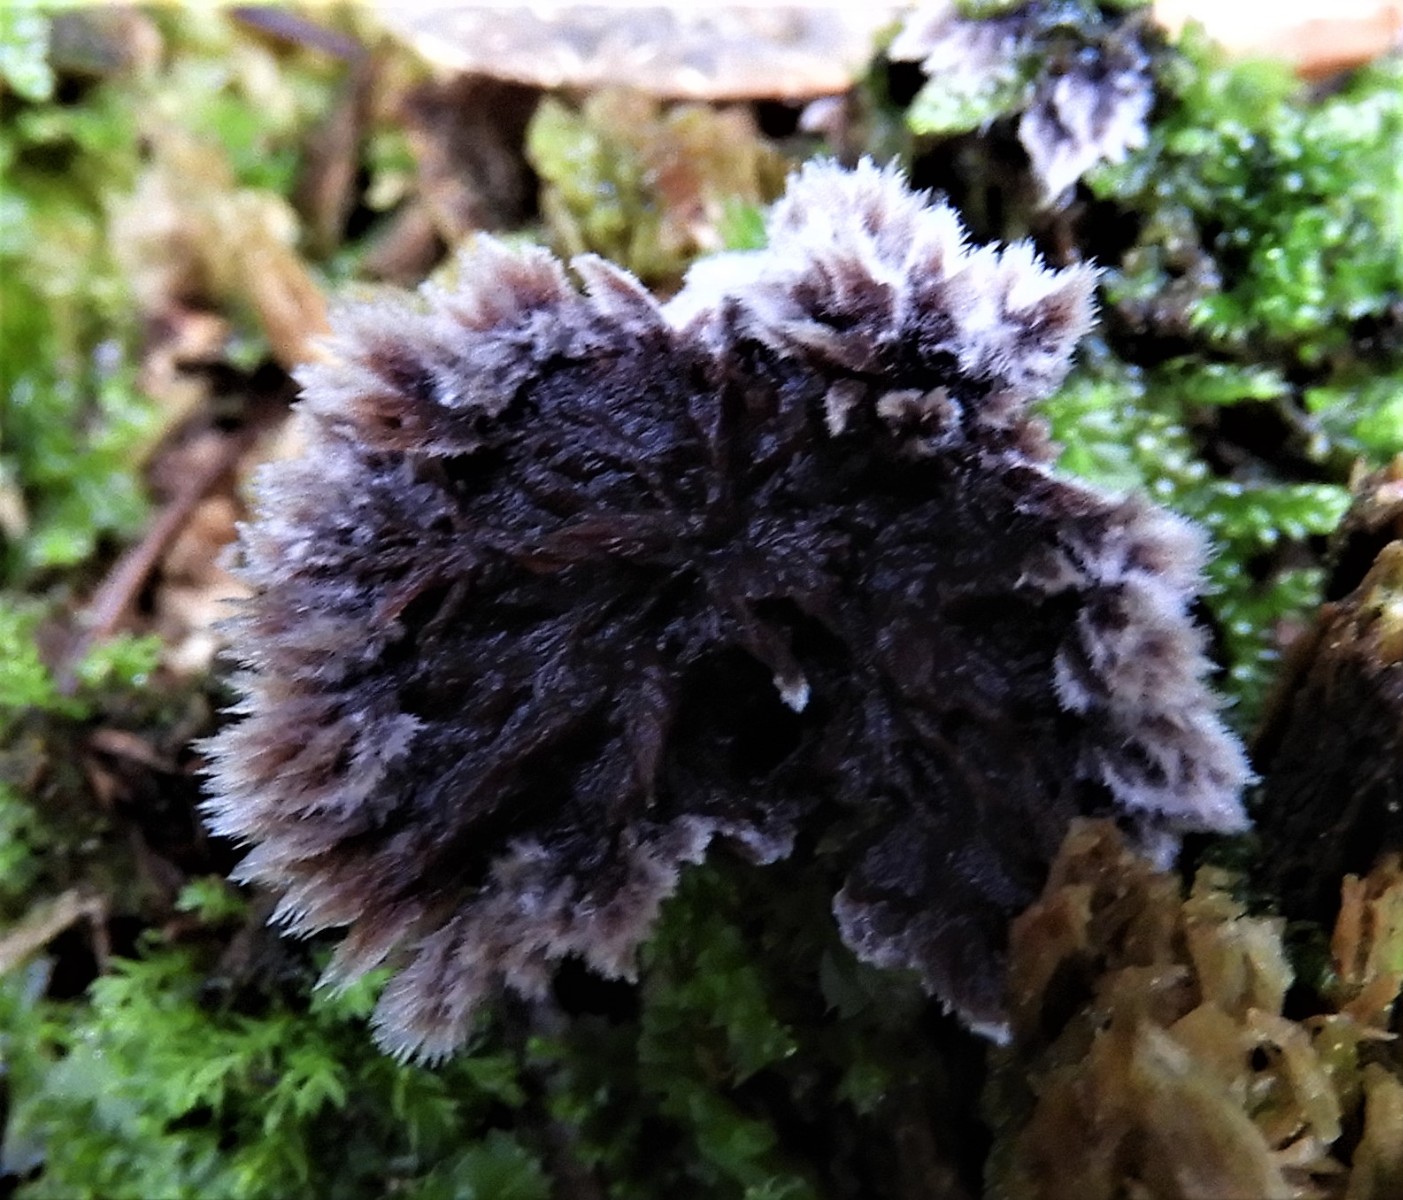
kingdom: Fungi
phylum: Basidiomycota
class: Agaricomycetes
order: Thelephorales
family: Thelephoraceae
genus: Thelephora
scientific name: Thelephora terrestris
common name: fliget frynsesvamp
